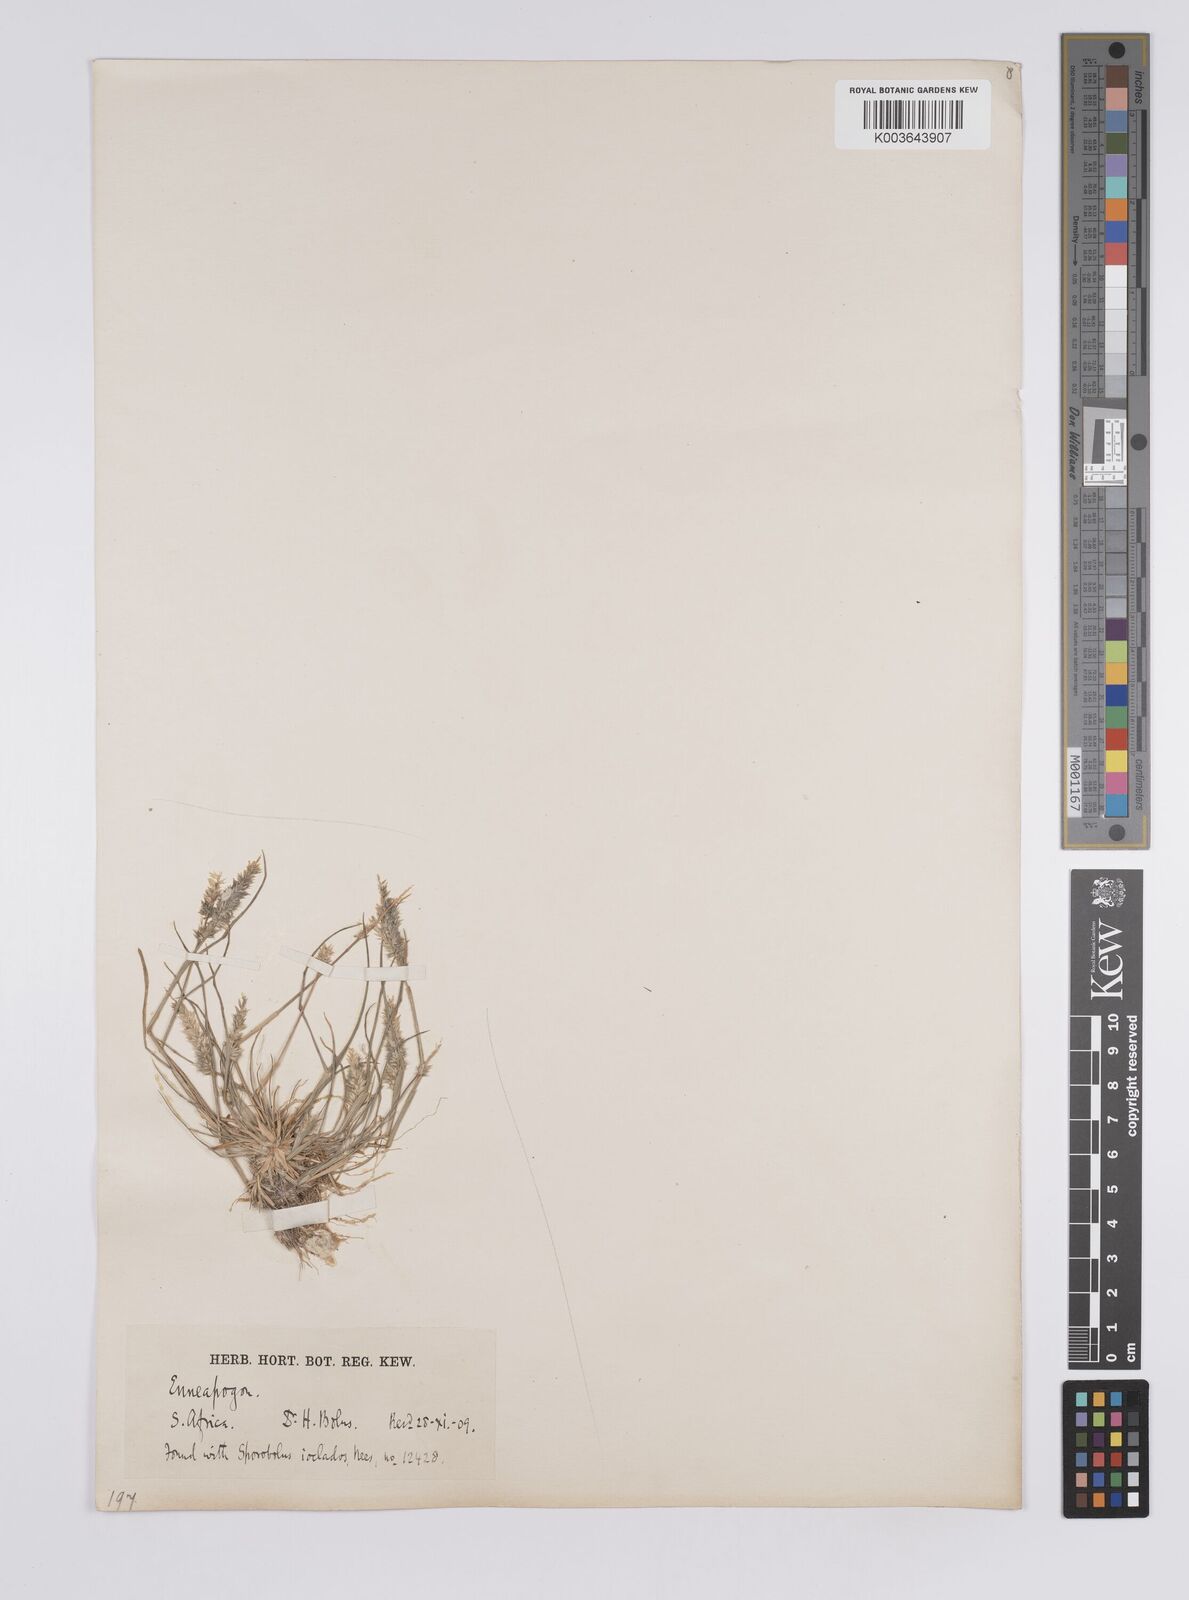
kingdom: Plantae
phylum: Tracheophyta
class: Liliopsida
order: Poales
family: Poaceae
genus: Enneapogon
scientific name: Enneapogon desvauxii
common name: Feather pappus grass
